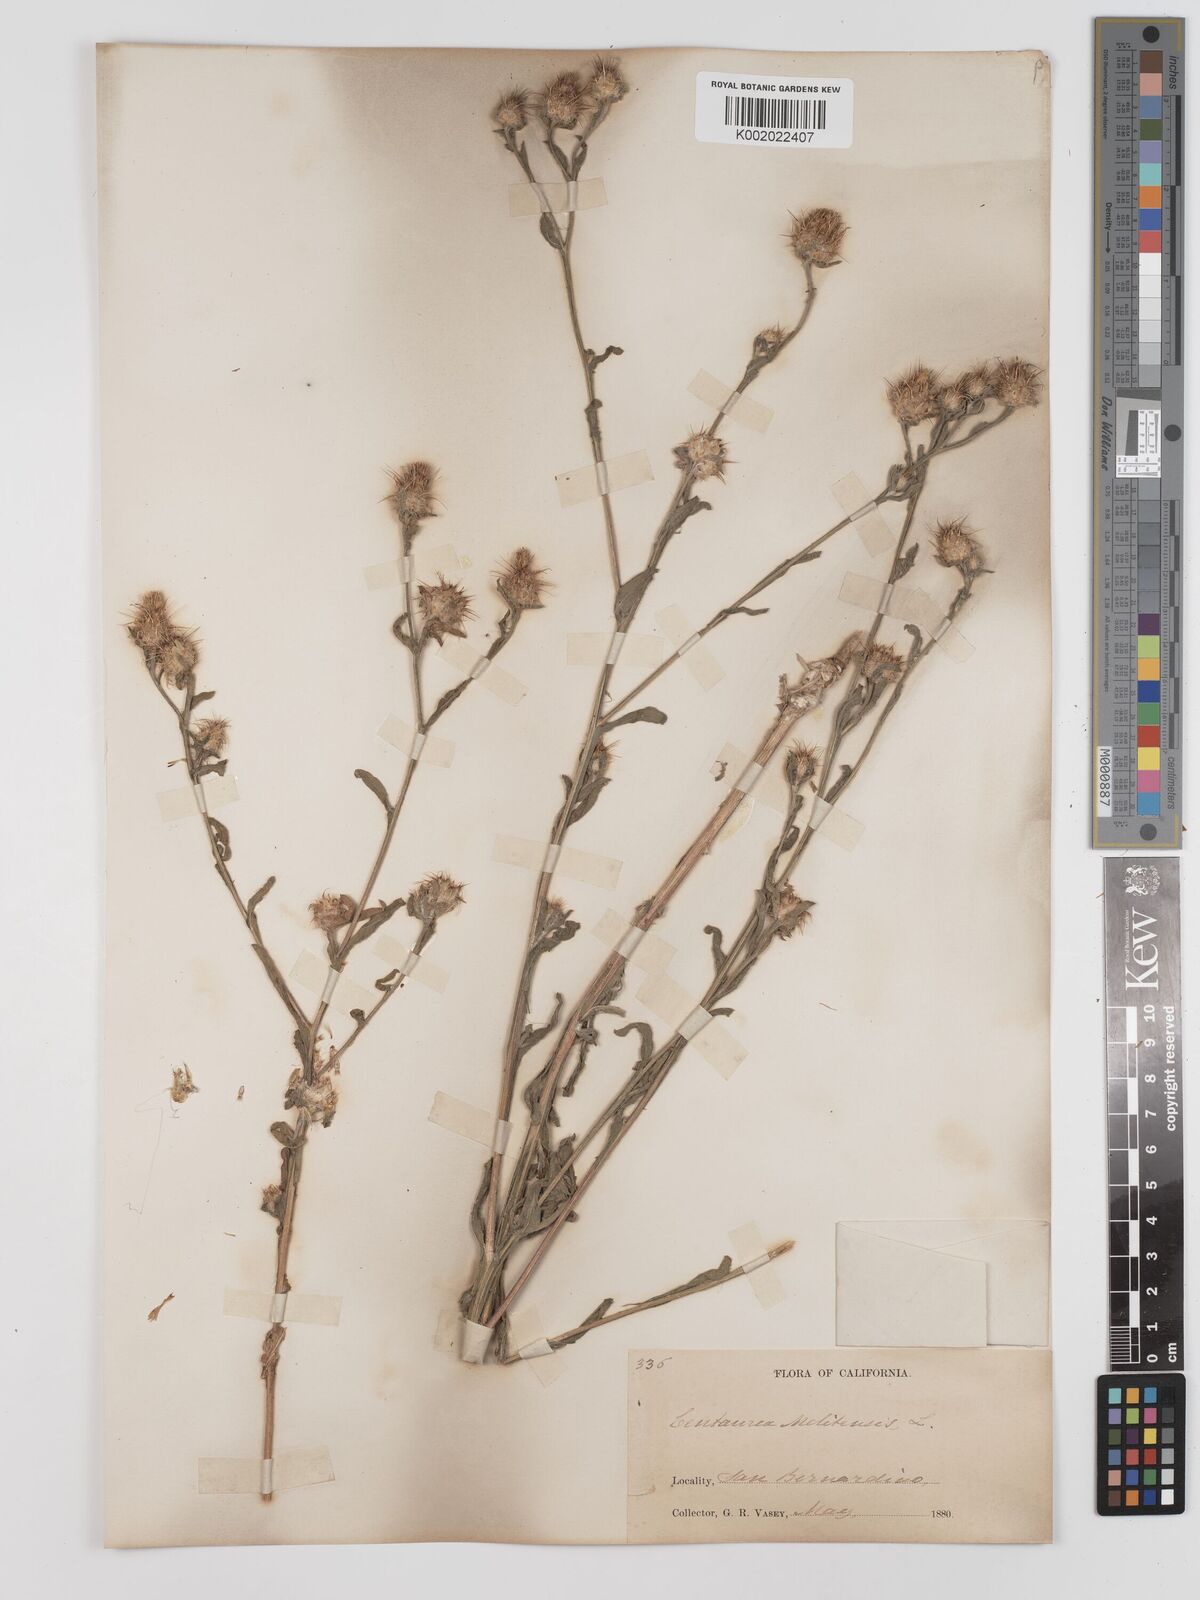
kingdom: Plantae
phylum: Tracheophyta
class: Magnoliopsida
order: Asterales
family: Asteraceae
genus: Centaurea
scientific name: Centaurea melitensis
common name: Maltese star-thistle
